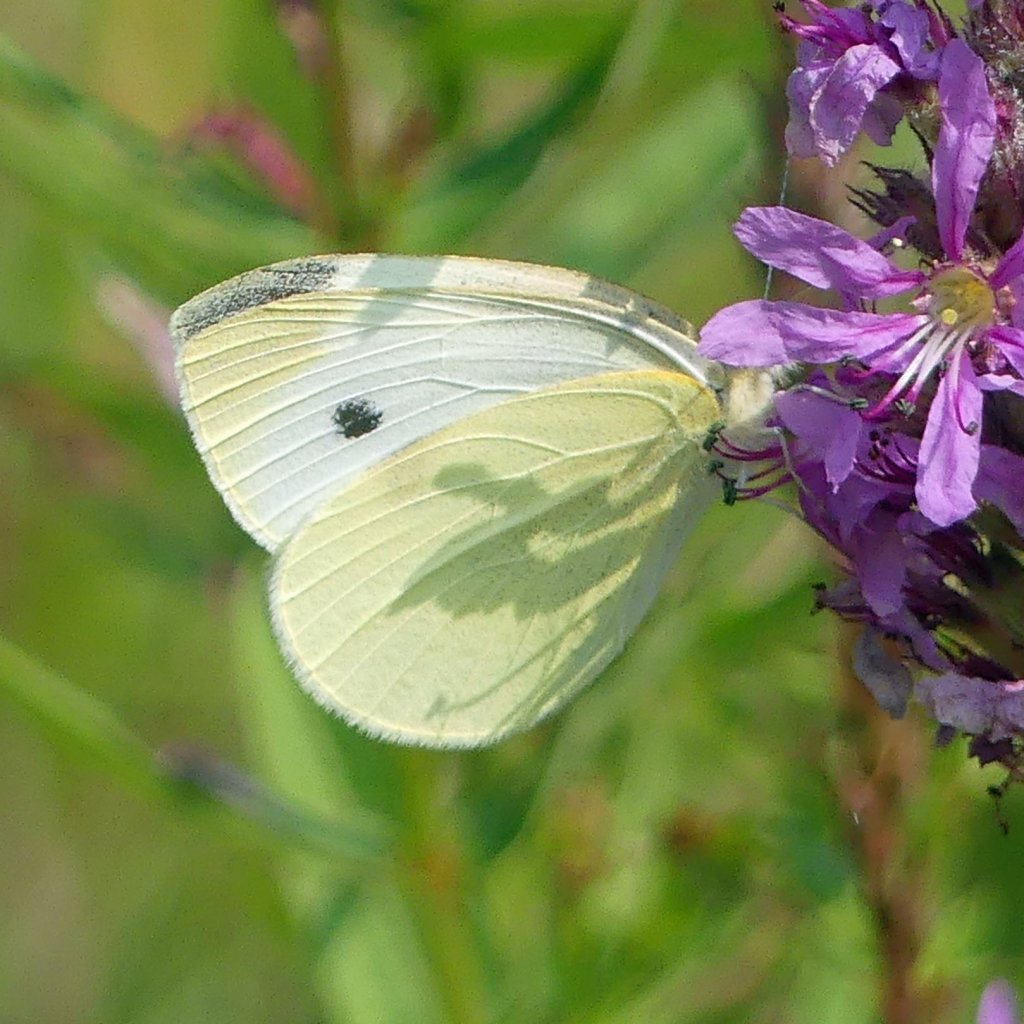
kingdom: Animalia
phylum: Arthropoda
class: Insecta
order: Lepidoptera
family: Pieridae
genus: Pieris
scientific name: Pieris rapae
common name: Cabbage White
